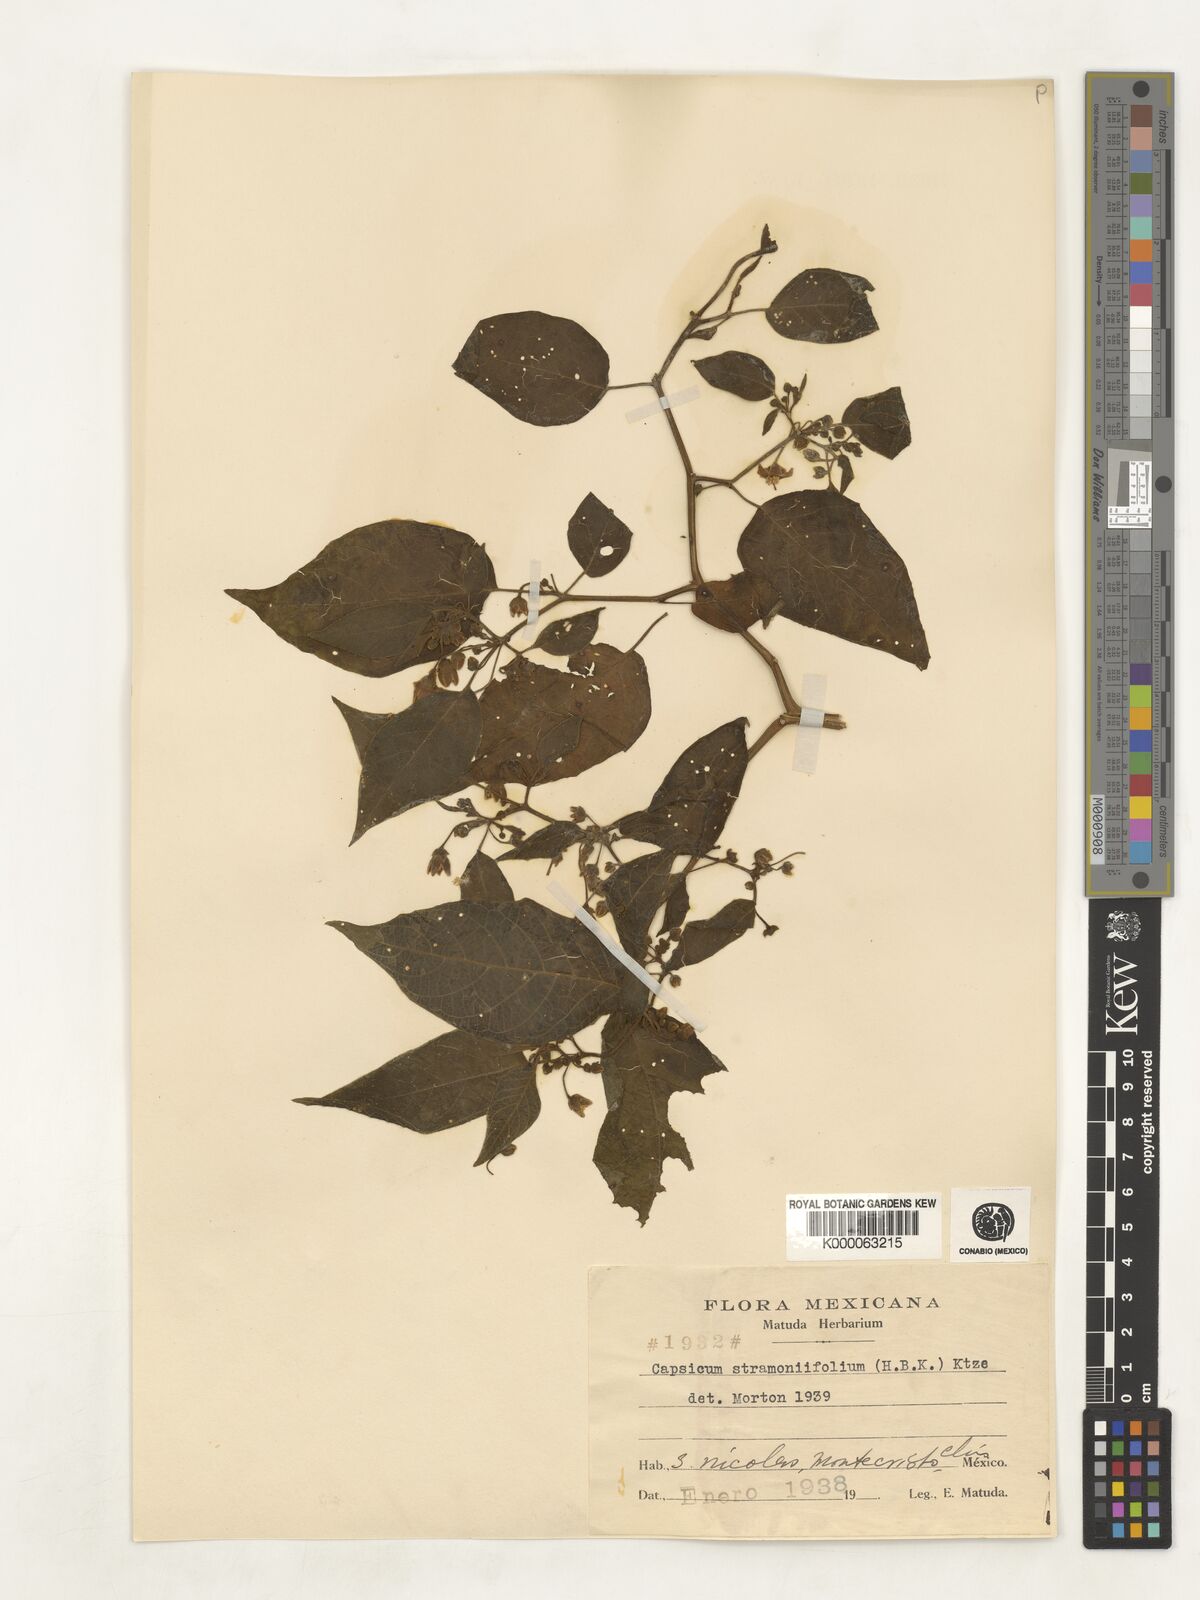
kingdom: Plantae
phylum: Tracheophyta
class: Magnoliopsida
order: Solanales
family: Solanaceae
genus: Brachistus
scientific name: Brachistus stramonifolius
